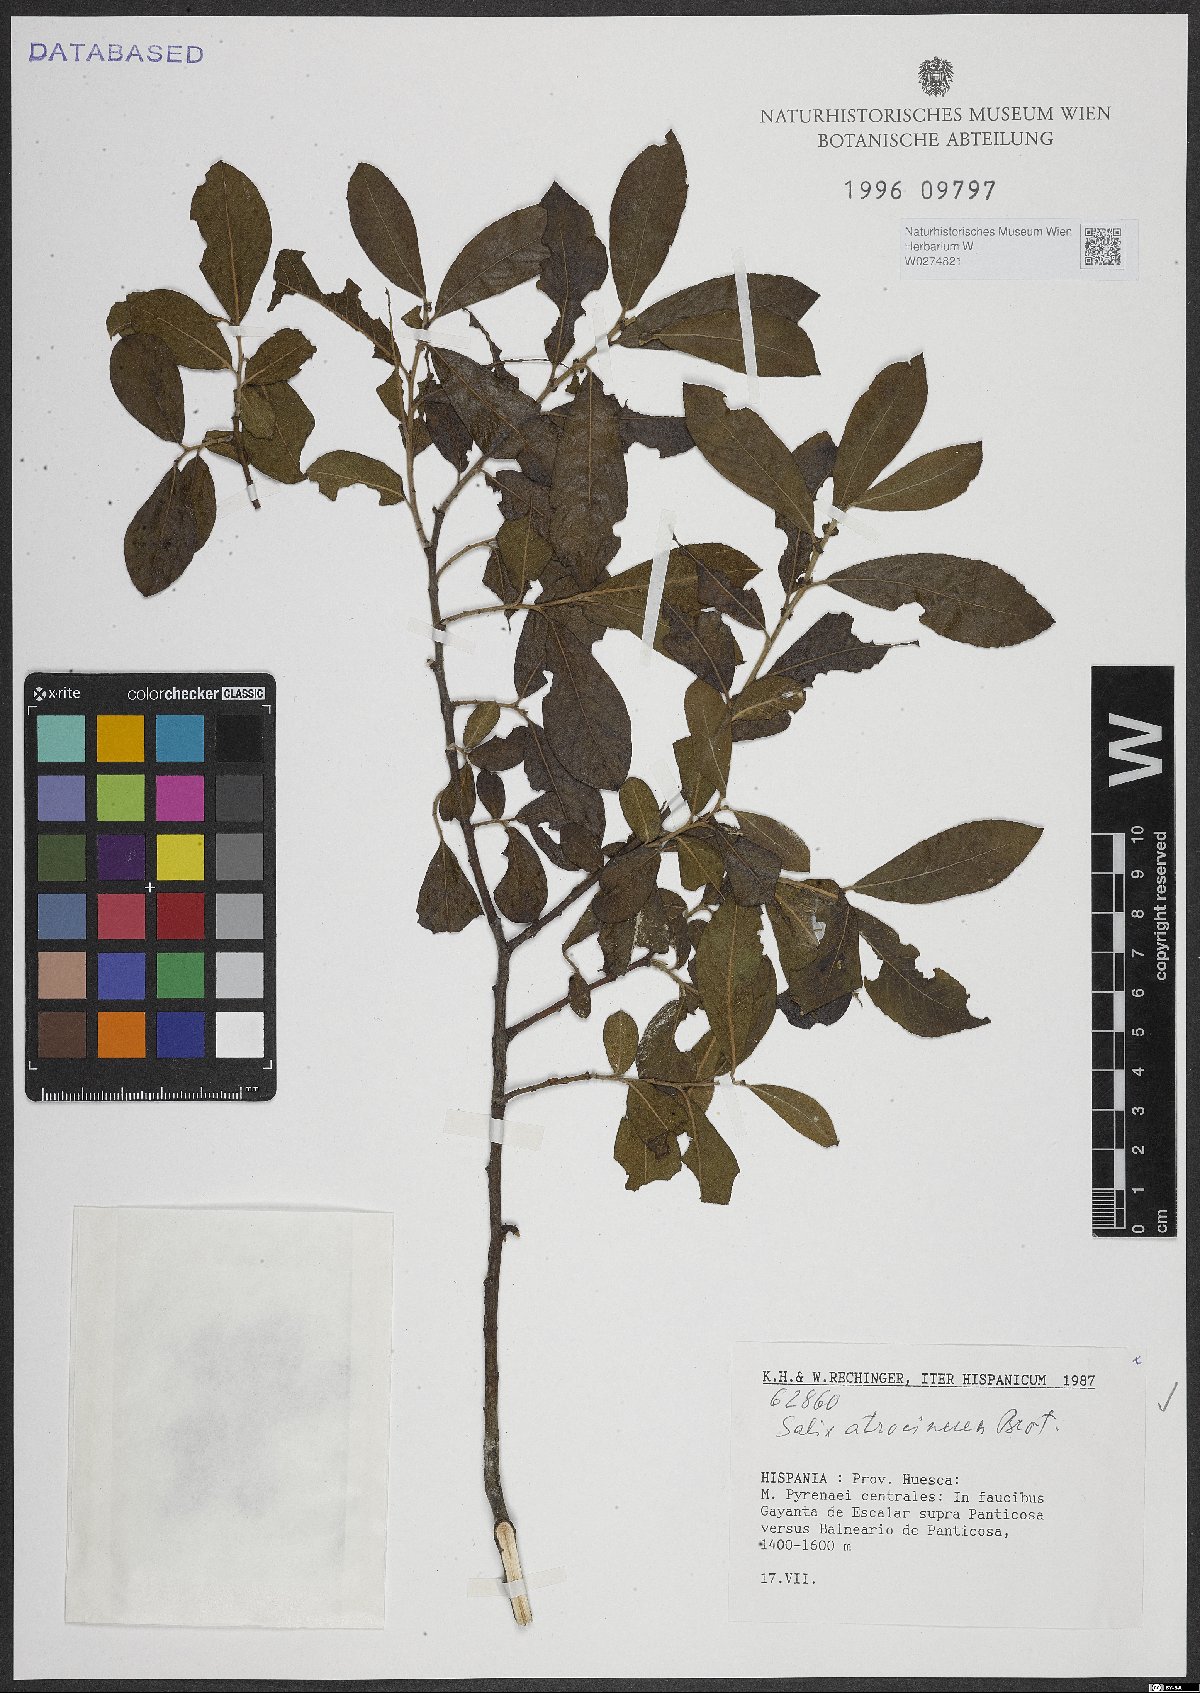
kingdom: Plantae
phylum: Tracheophyta
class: Magnoliopsida
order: Malpighiales
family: Salicaceae
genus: Salix
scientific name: Salix atrocinerea
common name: Rusty willow
